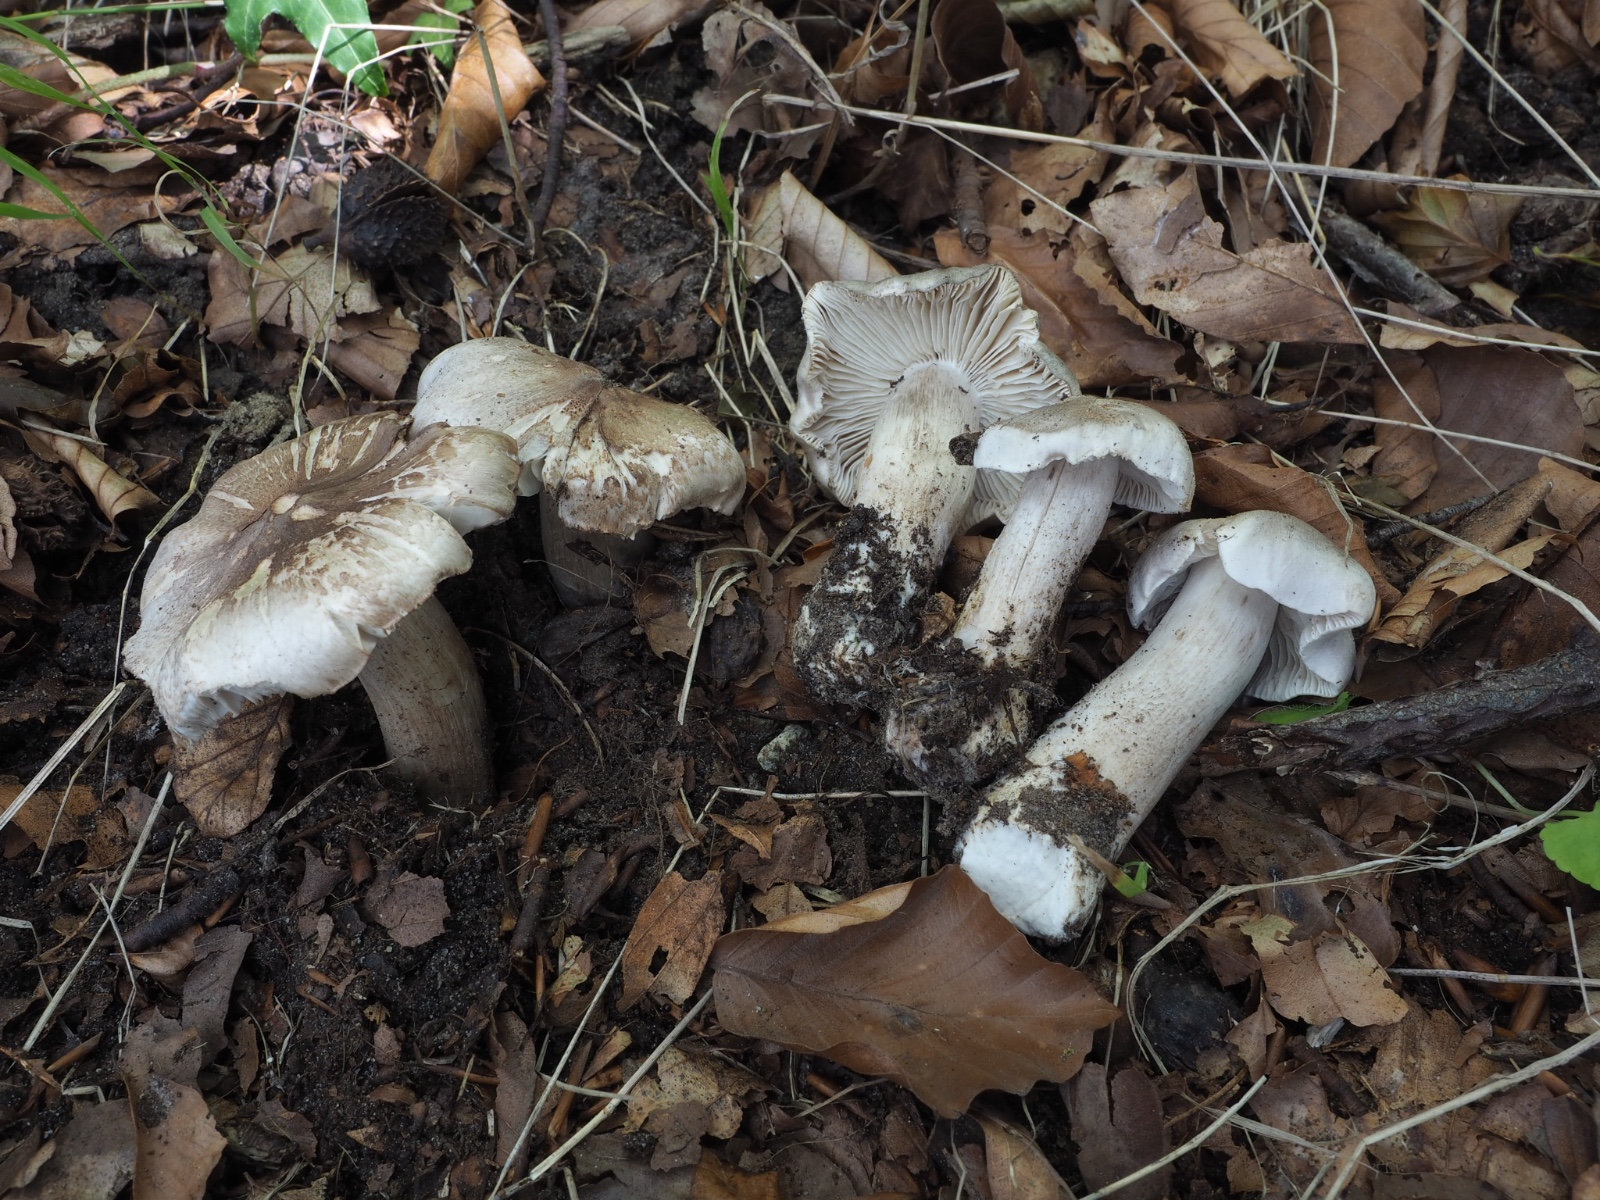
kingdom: Fungi
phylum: Basidiomycota
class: Agaricomycetes
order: Agaricales
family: Tricholomataceae
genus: Tricholoma
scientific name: Tricholoma sciodes
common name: stribet ridderhat
